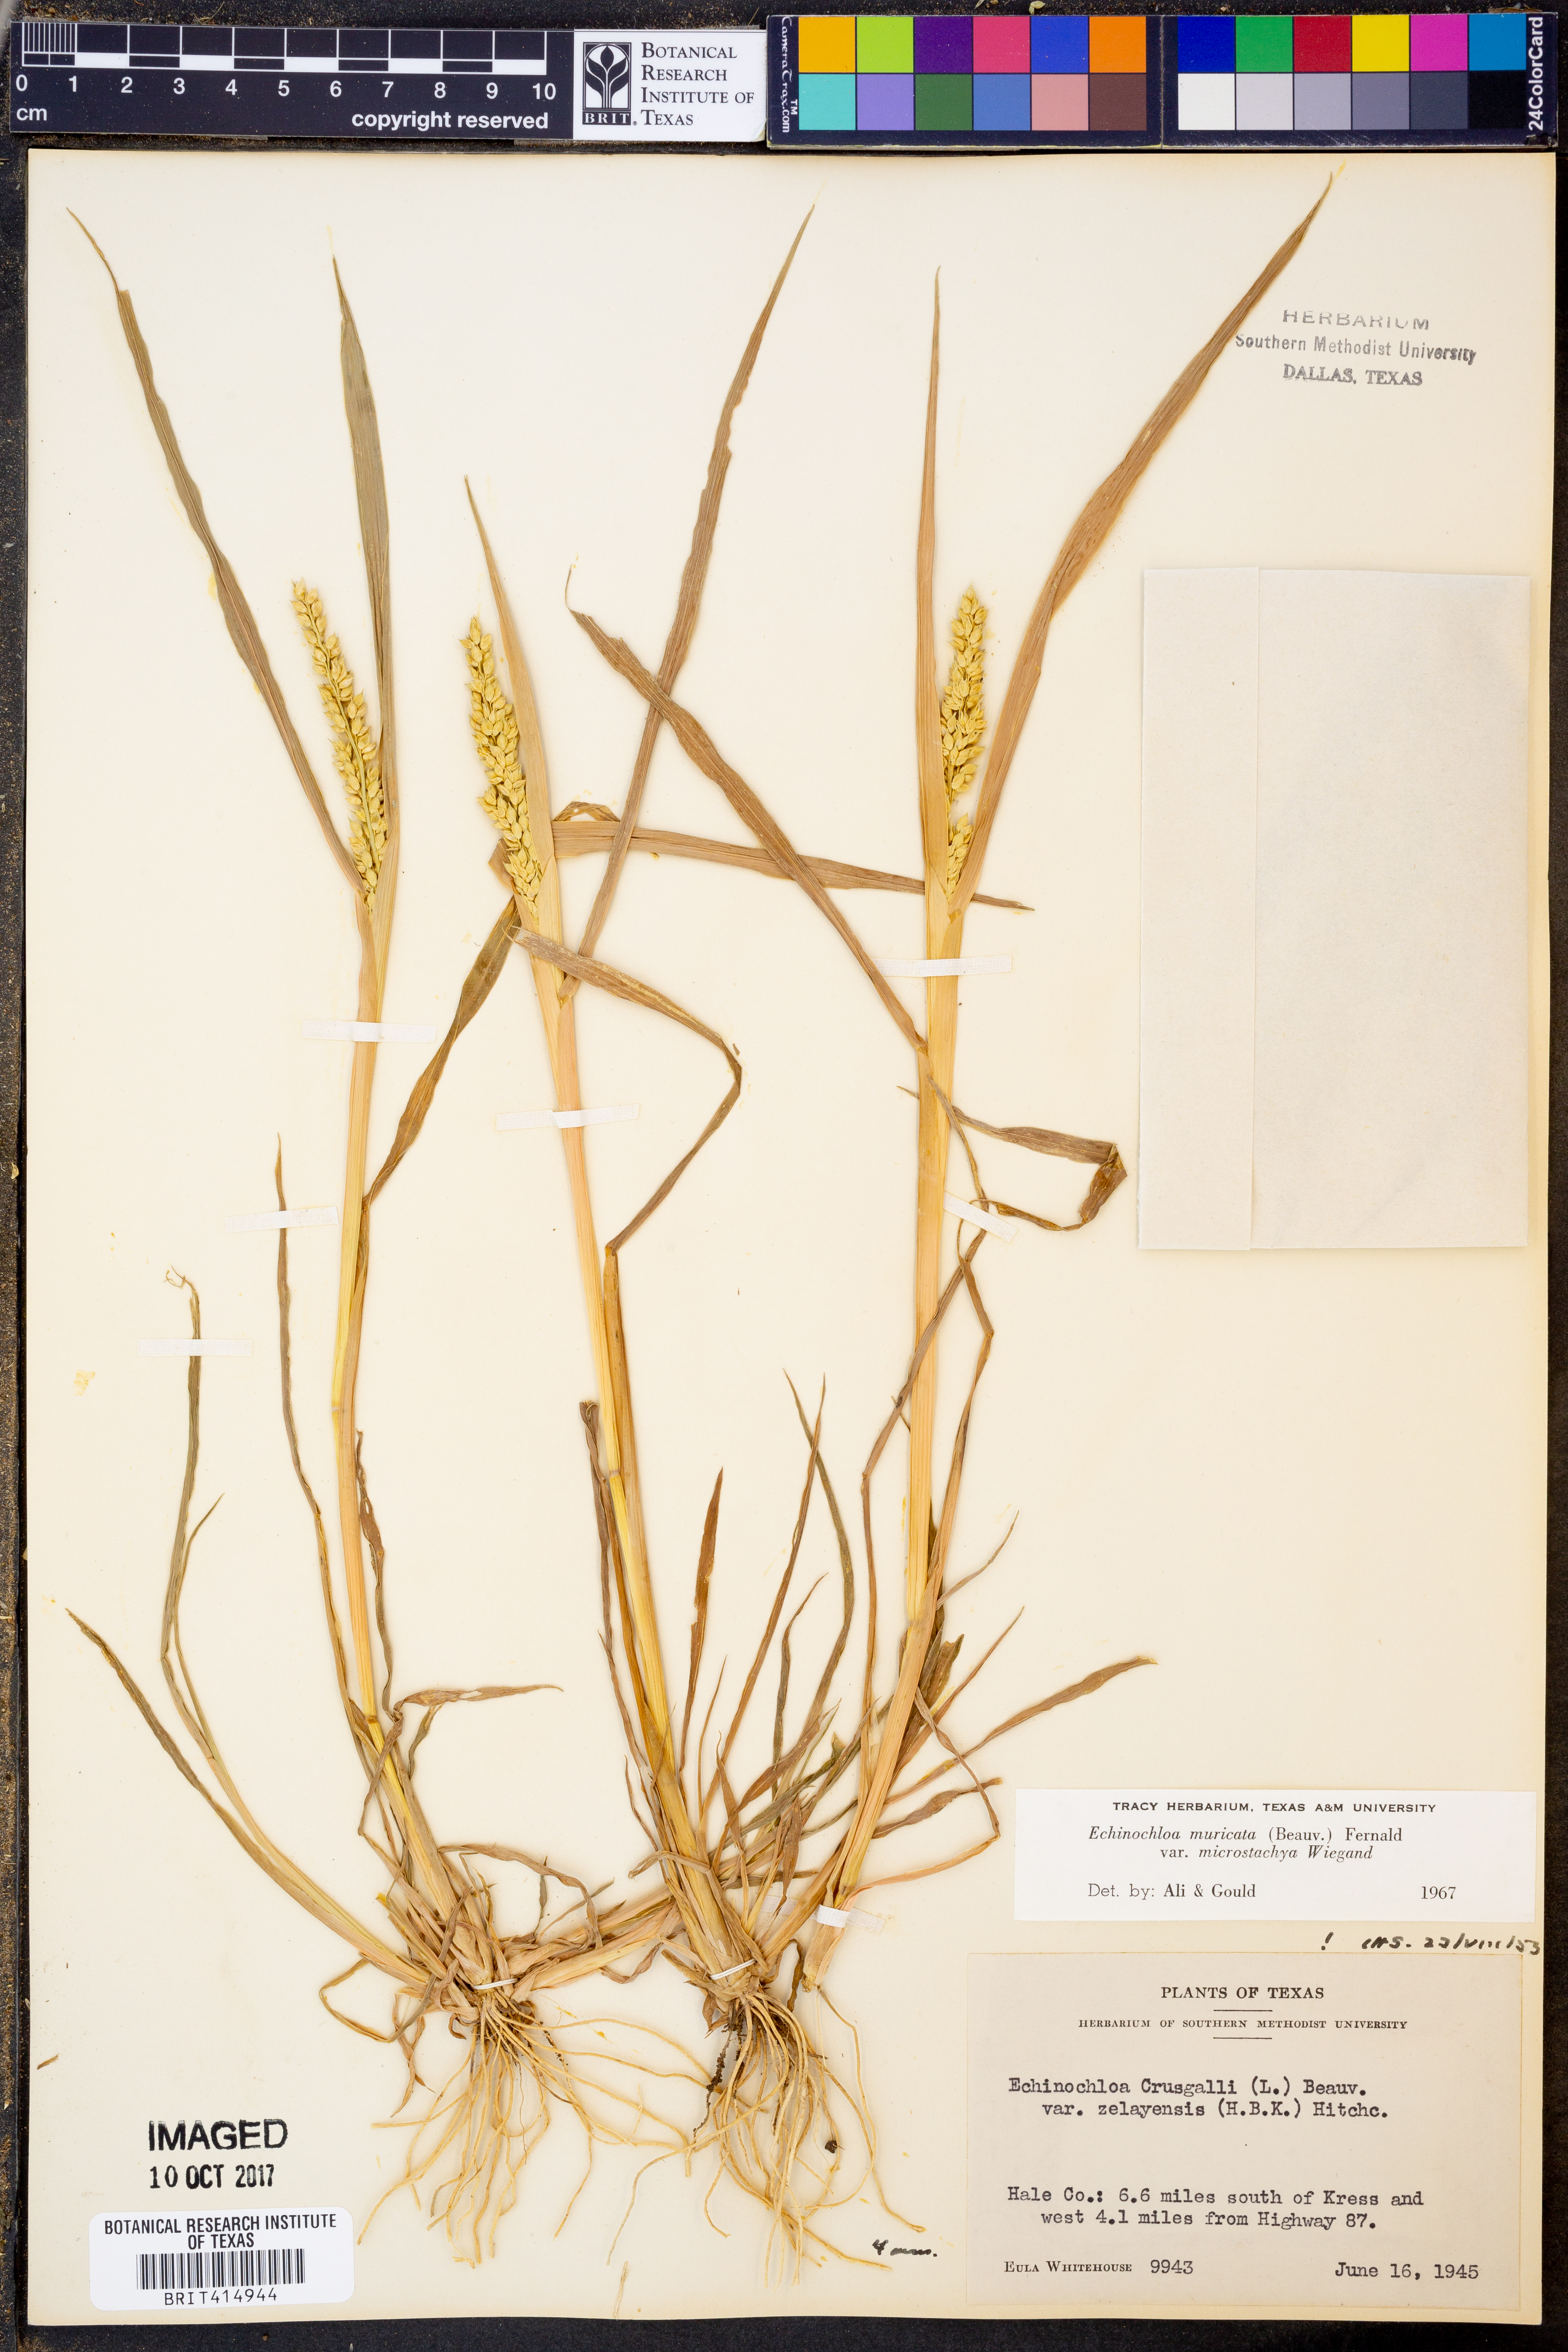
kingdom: Plantae
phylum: Tracheophyta
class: Liliopsida
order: Poales
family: Poaceae
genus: Echinochloa
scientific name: Echinochloa muricata
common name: American barnyard grass
